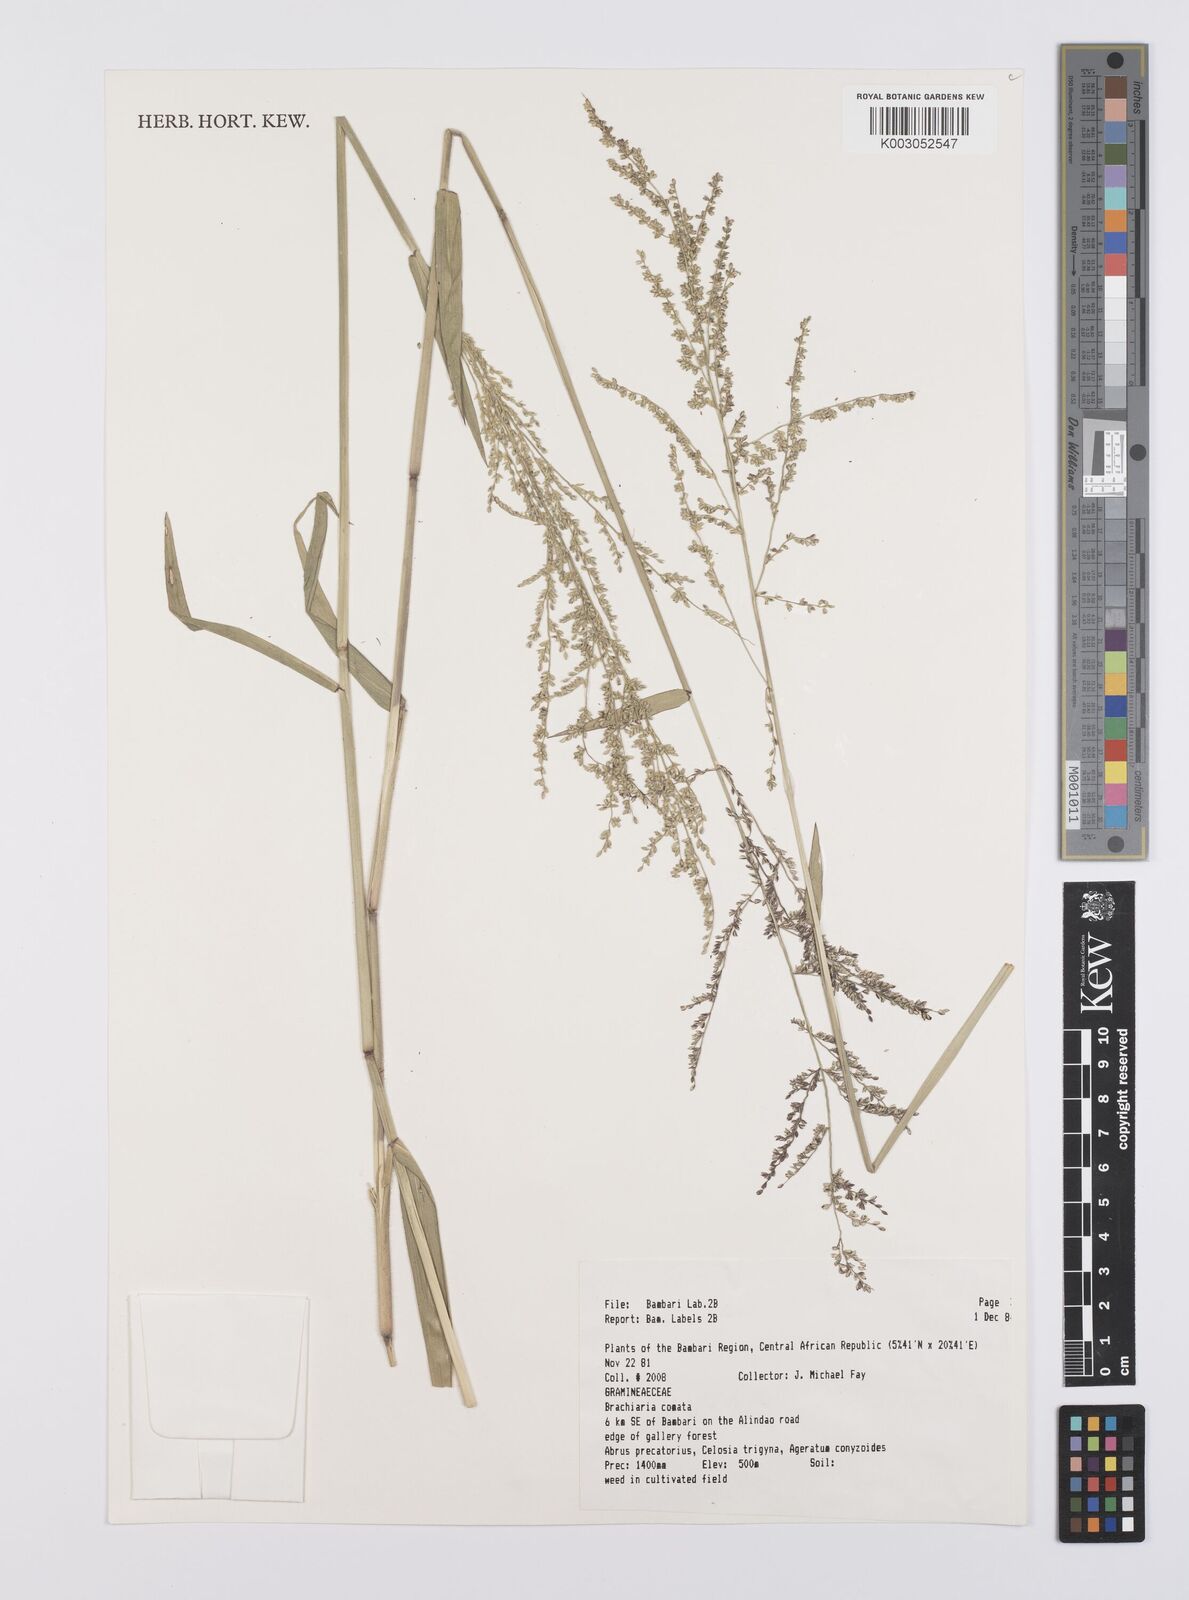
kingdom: Plantae
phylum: Tracheophyta
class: Liliopsida
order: Poales
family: Poaceae
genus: Urochloa
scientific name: Urochloa comata
